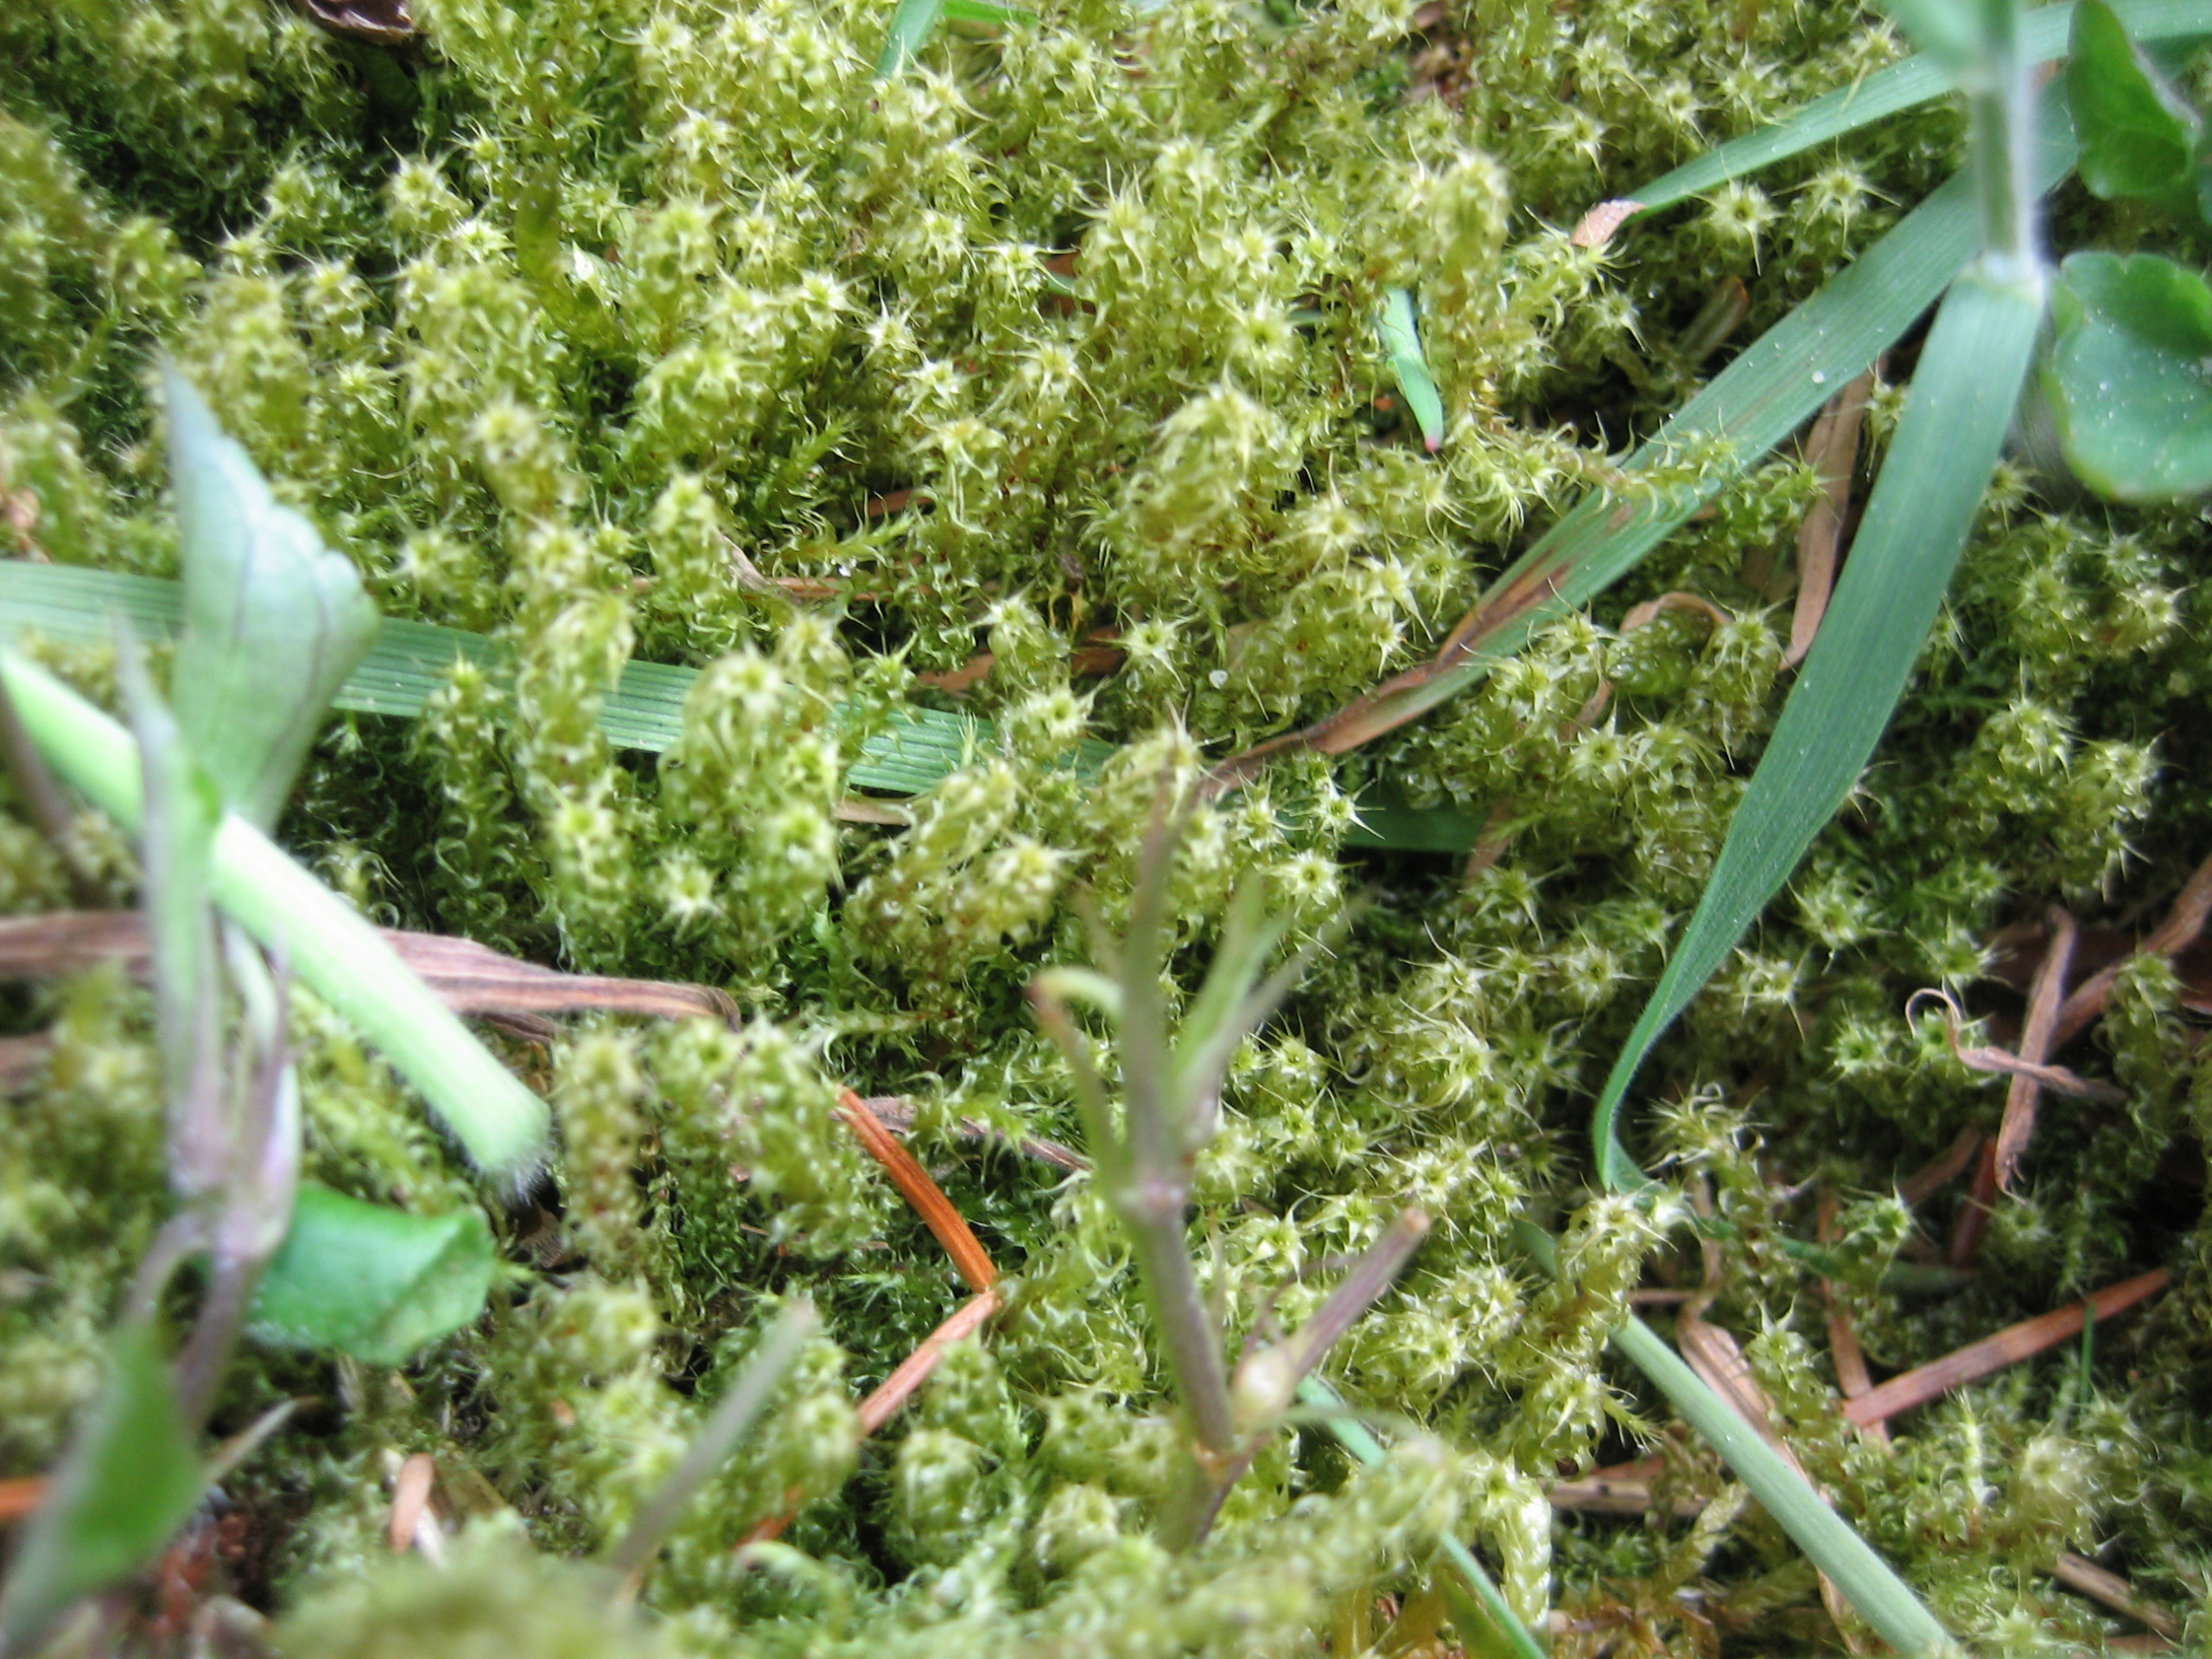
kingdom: Plantae
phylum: Bryophyta
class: Bryopsida
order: Hypnales
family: Hylocomiaceae
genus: Rhytidiadelphus
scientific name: Rhytidiadelphus squarrosus
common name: Plæne-kransemos
